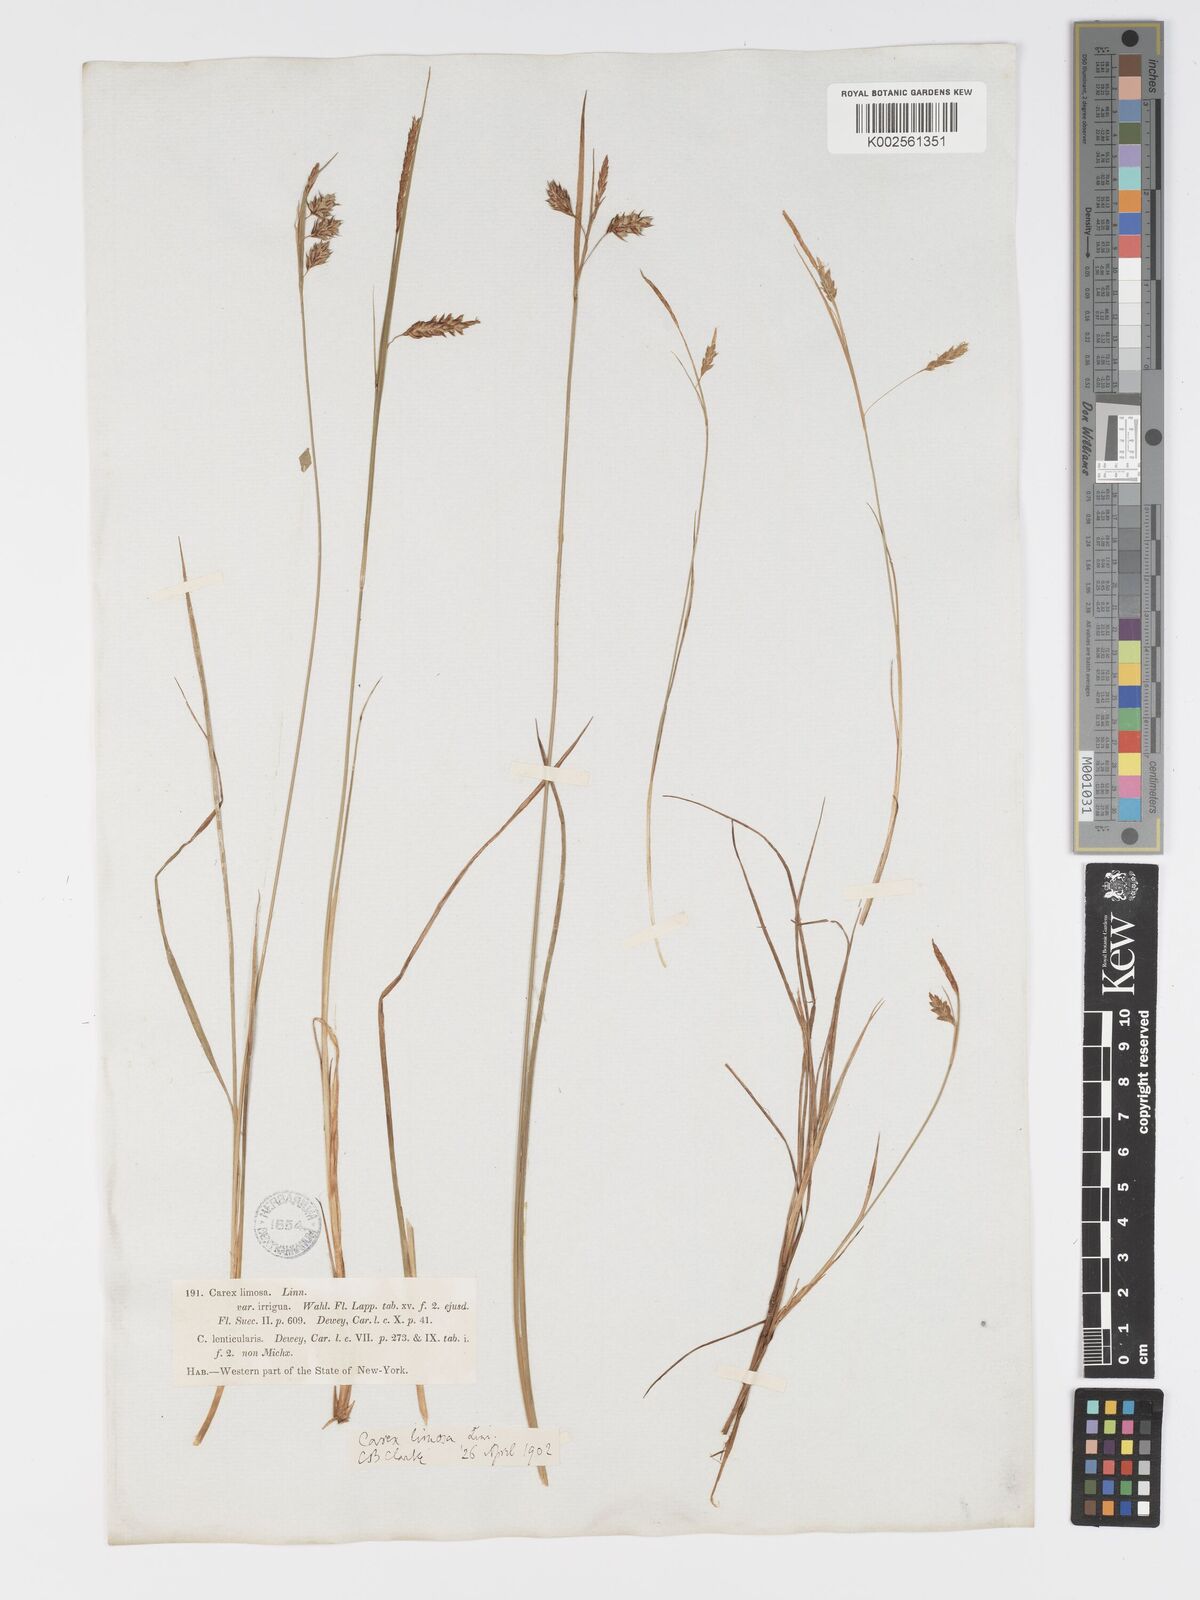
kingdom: Plantae
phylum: Tracheophyta
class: Liliopsida
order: Poales
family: Cyperaceae
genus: Carex
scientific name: Carex magellanica
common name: Bog sedge
